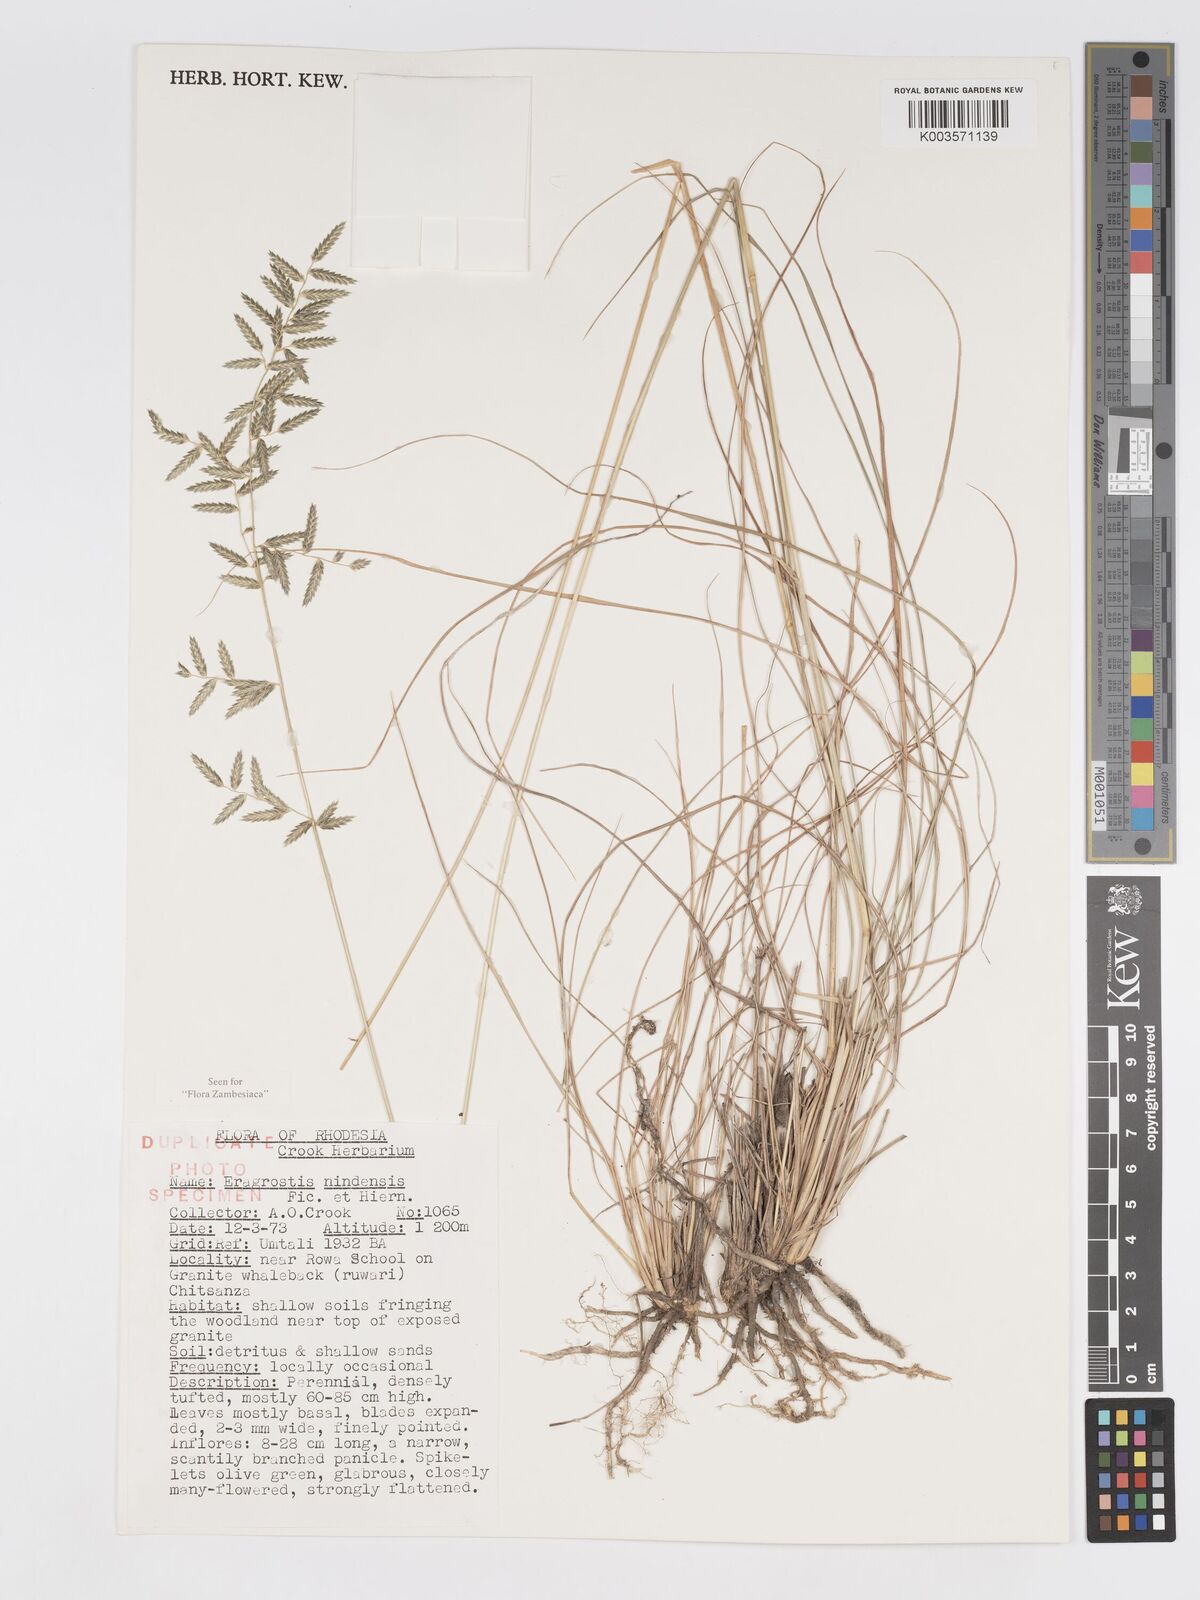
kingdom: Plantae
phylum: Tracheophyta
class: Liliopsida
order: Poales
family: Poaceae
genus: Eragrostis
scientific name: Eragrostis nindensis
